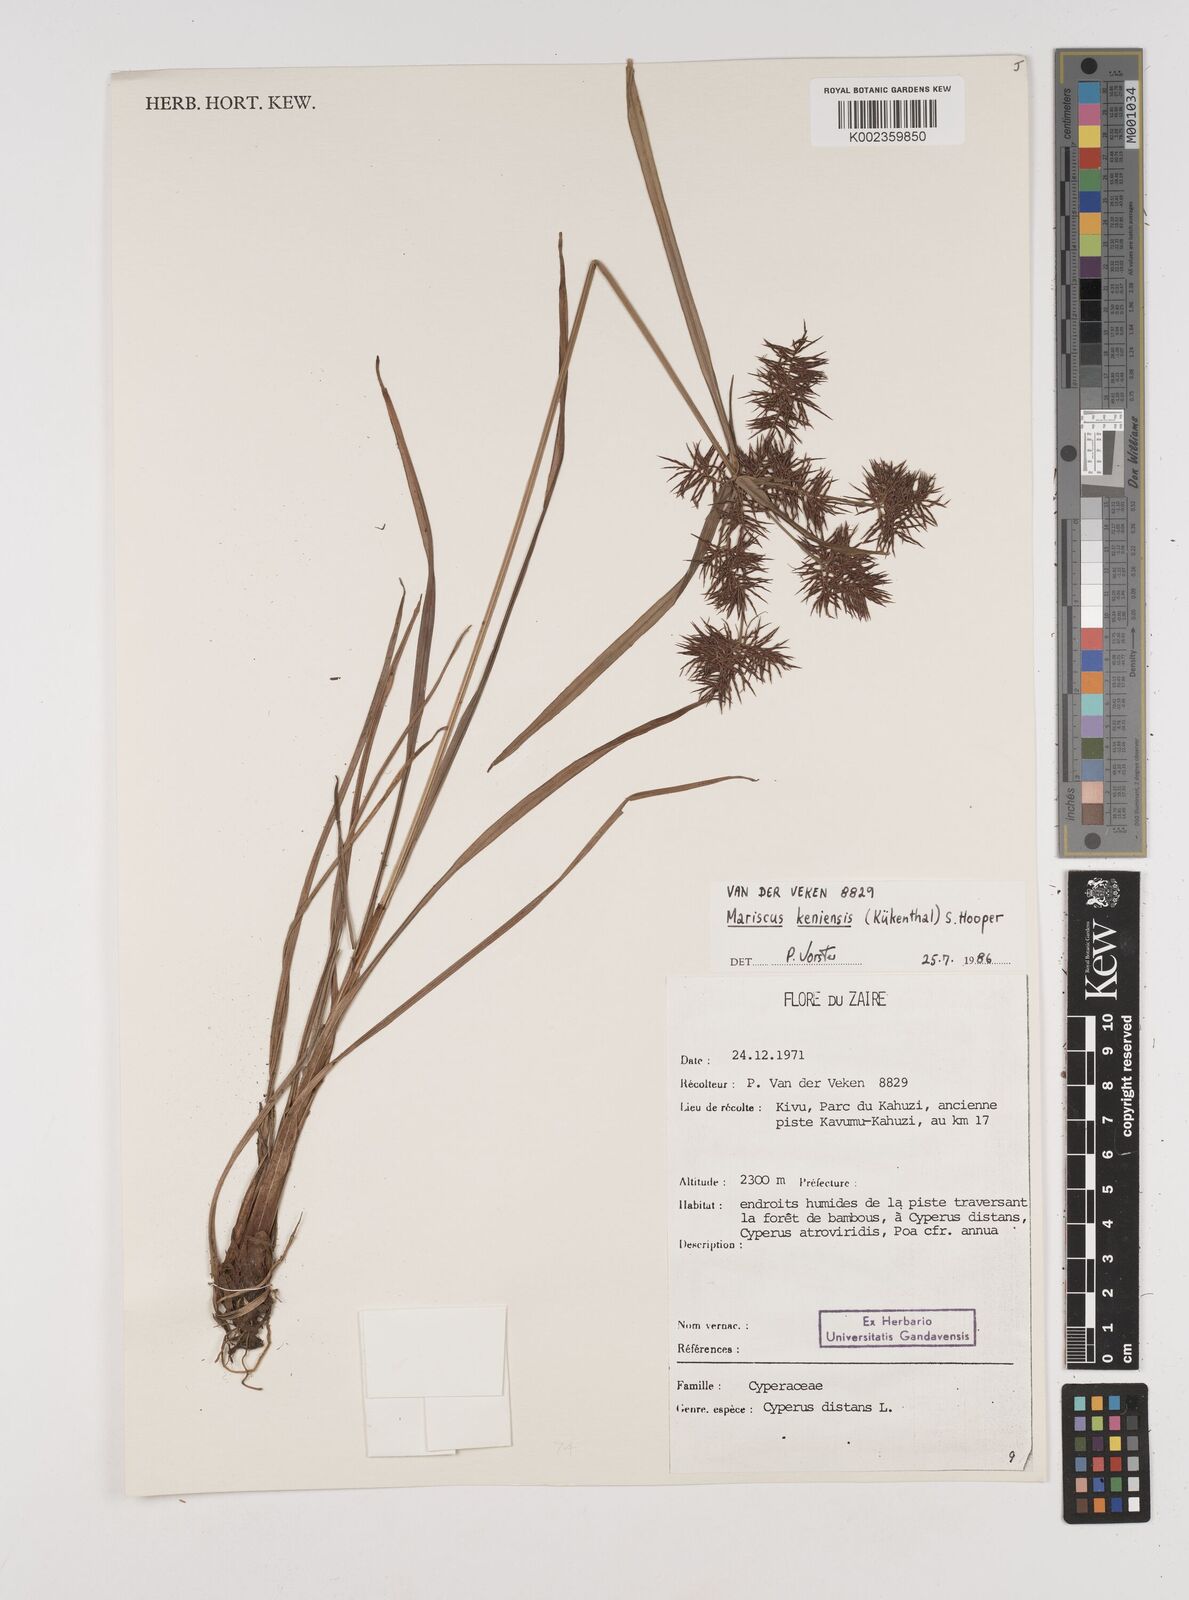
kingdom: Plantae
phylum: Tracheophyta
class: Liliopsida
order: Poales
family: Cyperaceae
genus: Cyperus
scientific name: Cyperus distans
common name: Slender cyperus
